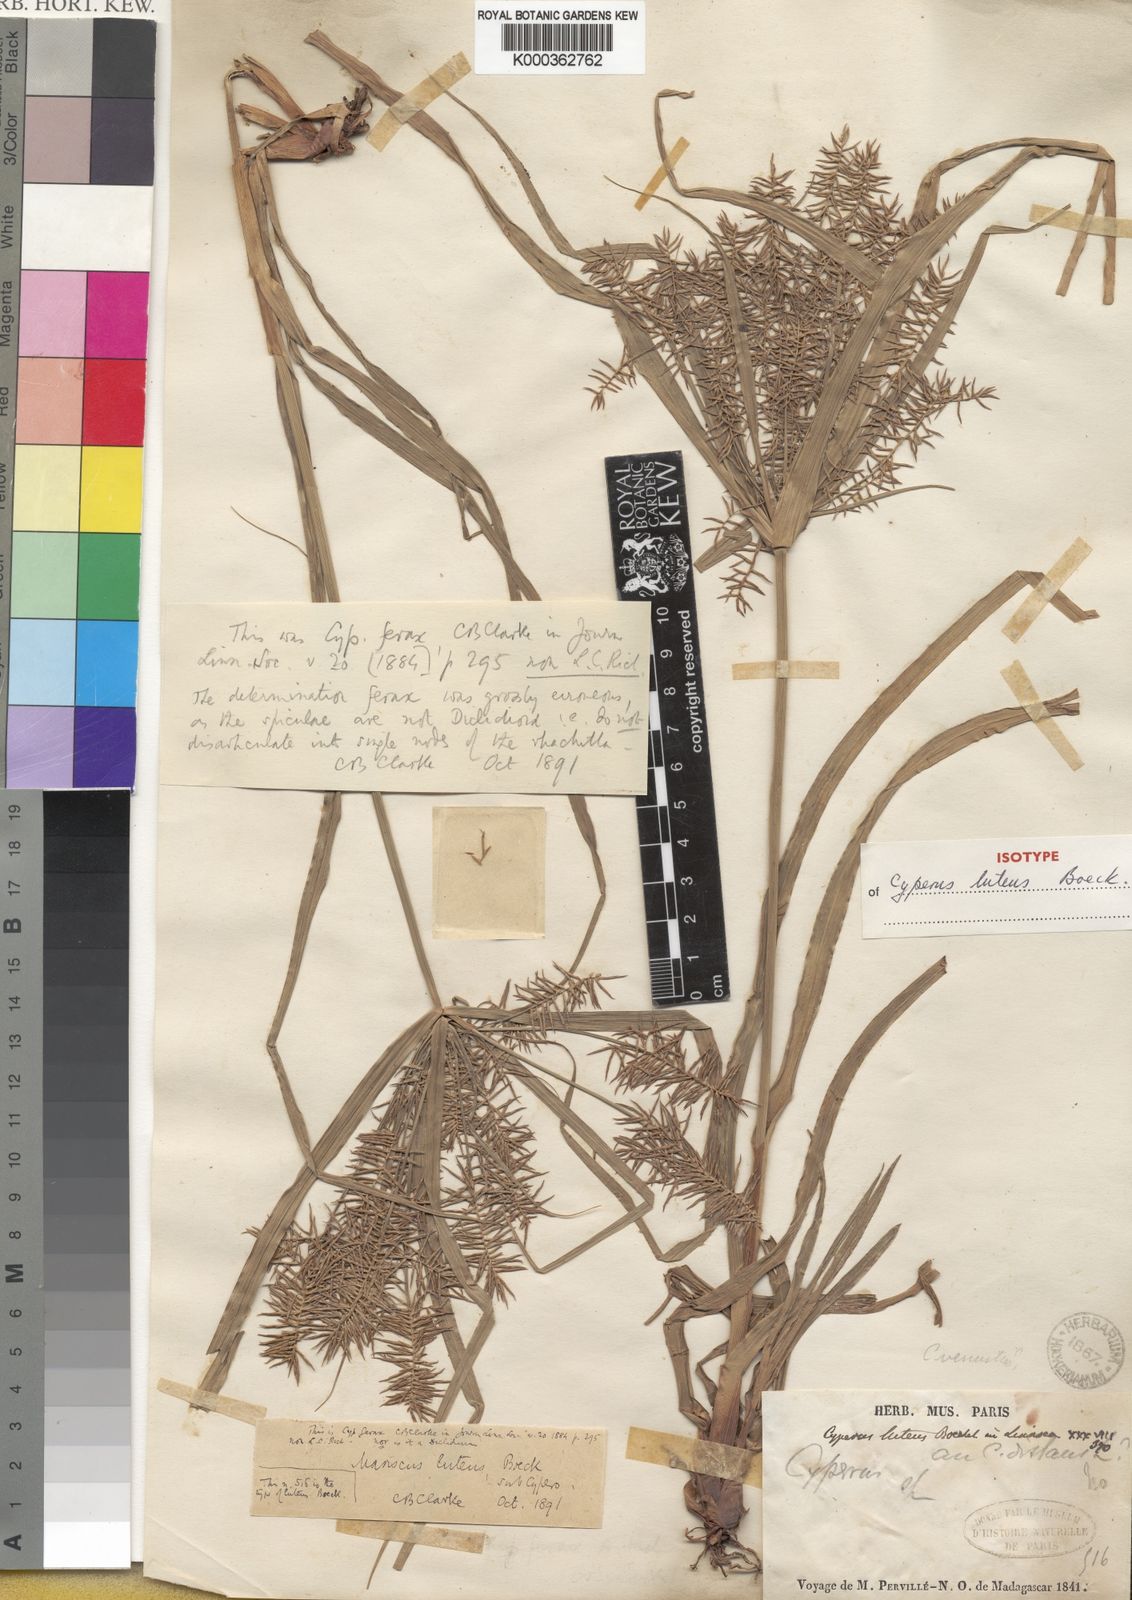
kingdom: Plantae
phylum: Tracheophyta
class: Liliopsida
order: Poales
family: Cyperaceae
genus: Cyperus
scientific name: Cyperus luteus
